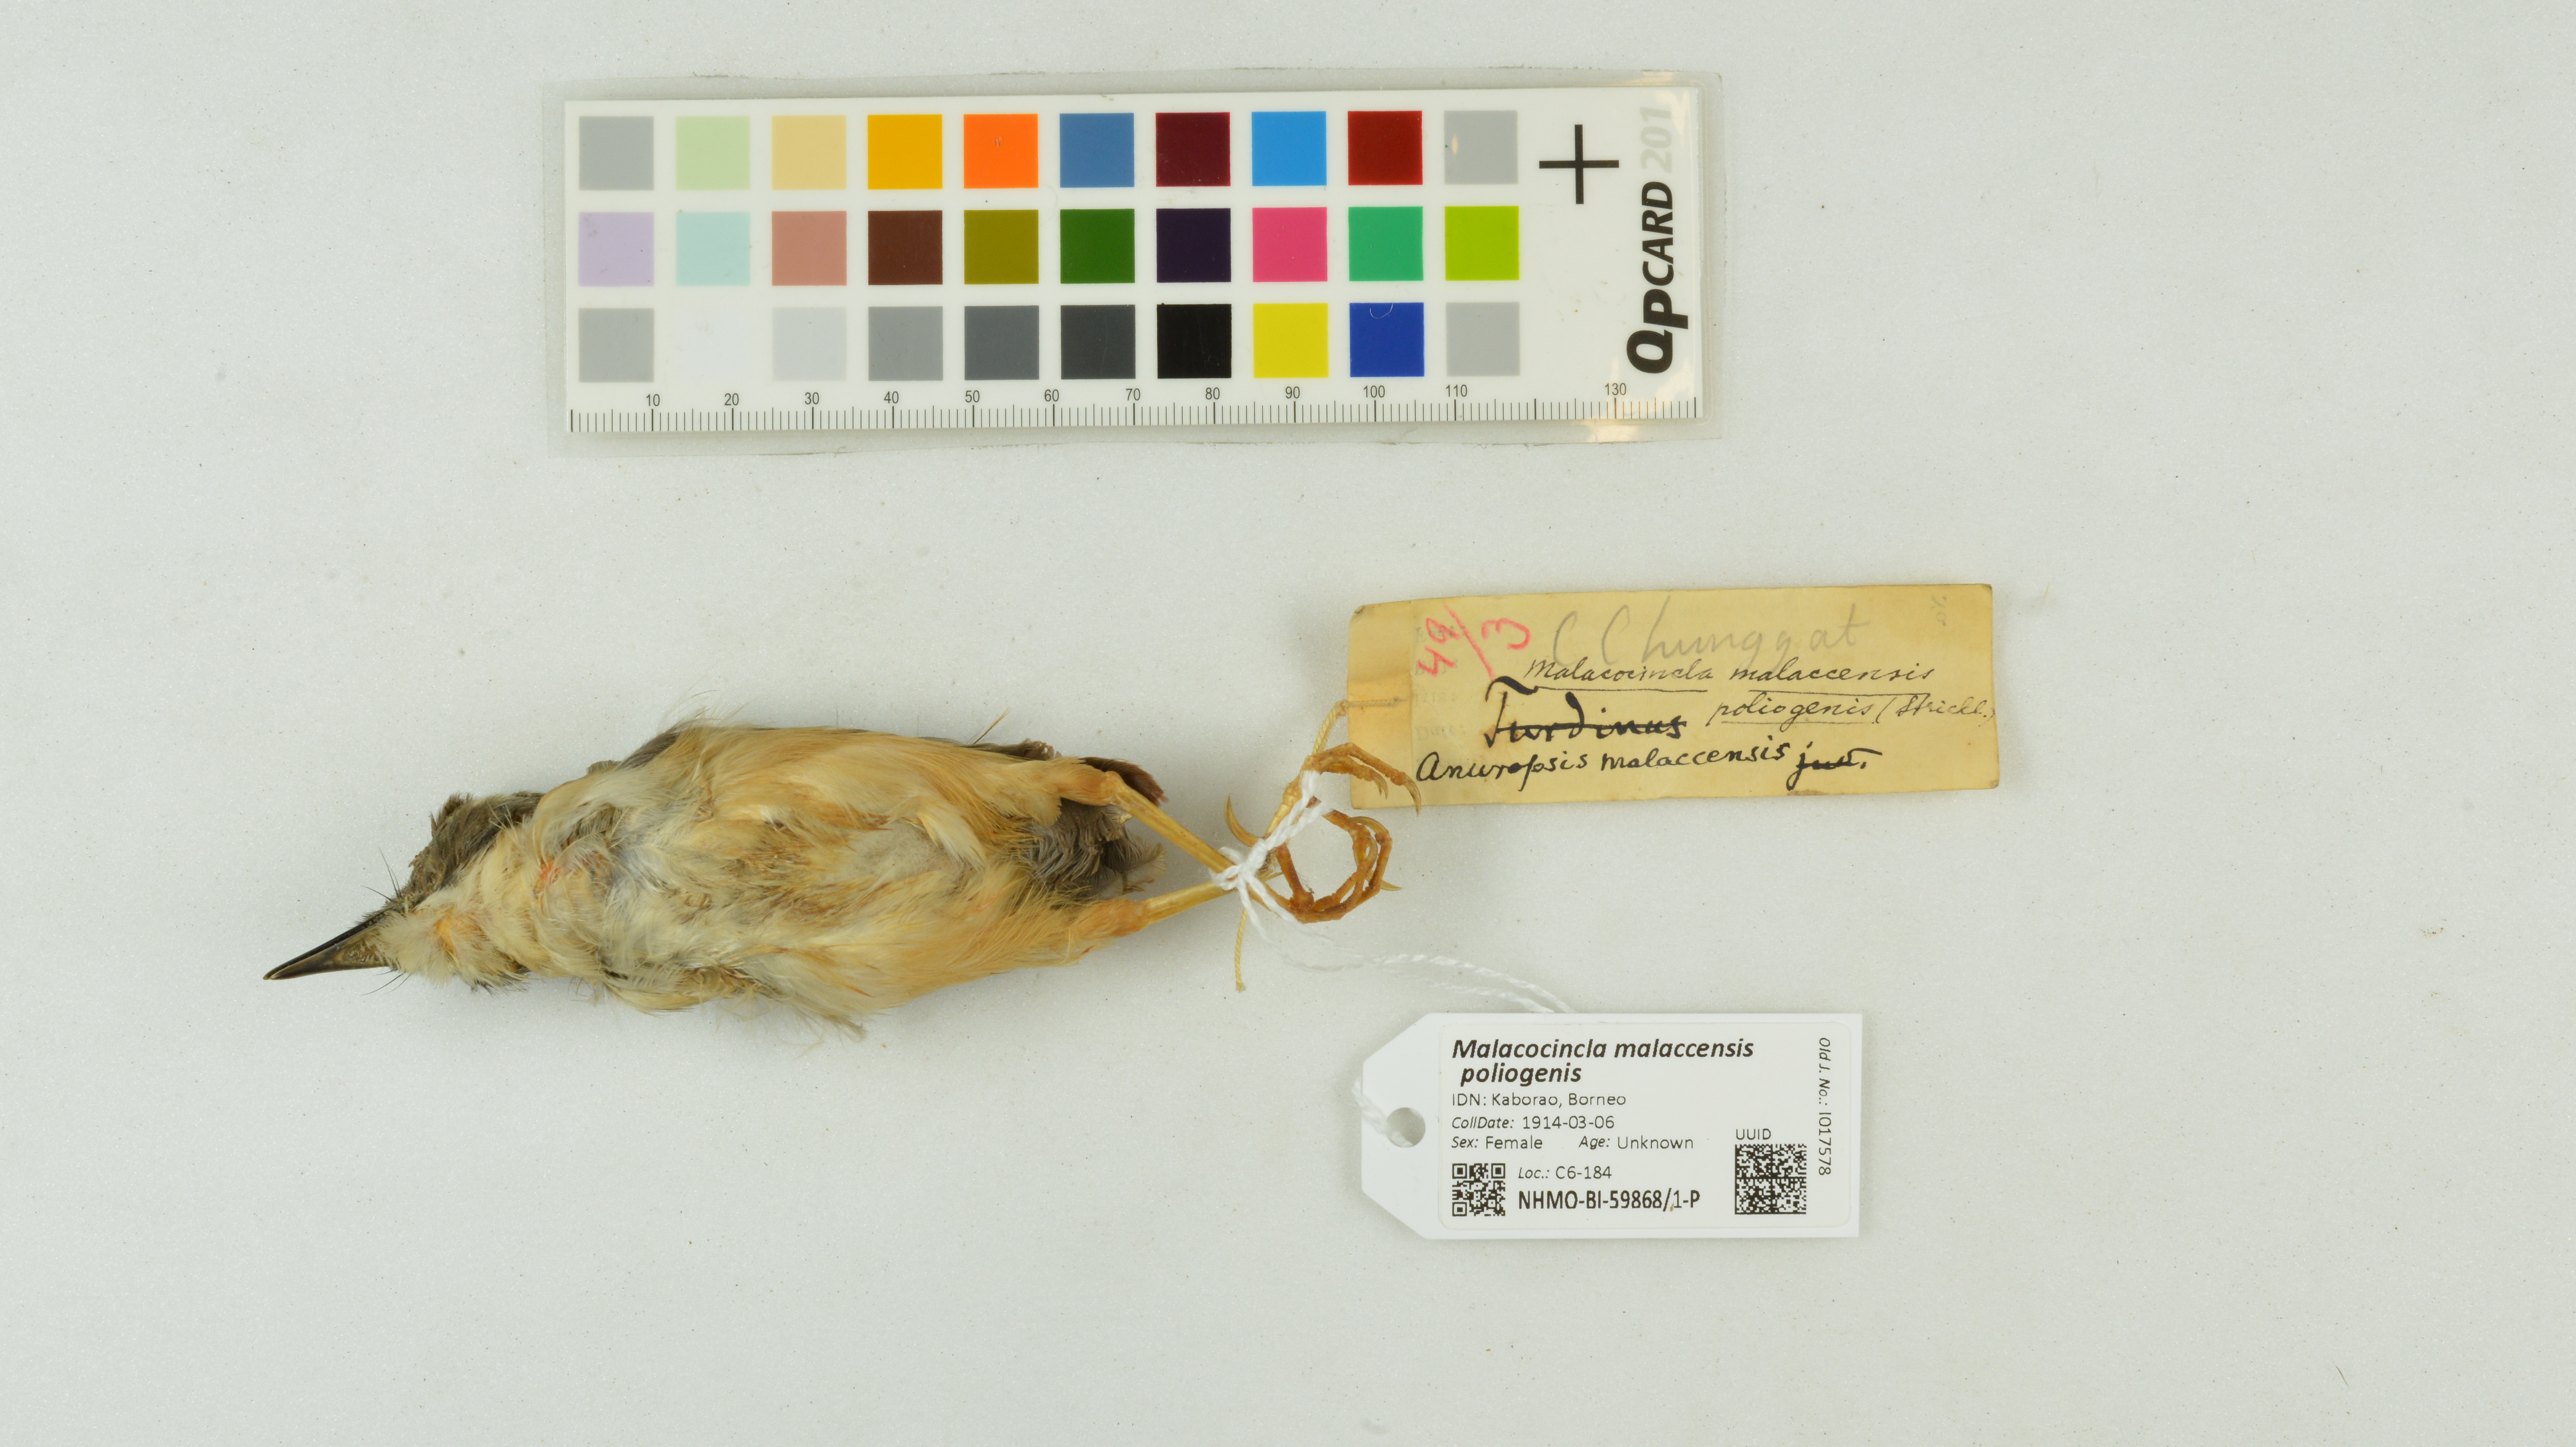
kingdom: Animalia
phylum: Chordata
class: Aves
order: Passeriformes
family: Pellorneidae
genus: Pellorneum
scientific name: Pellorneum malaccense
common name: Short-tailed babbler
